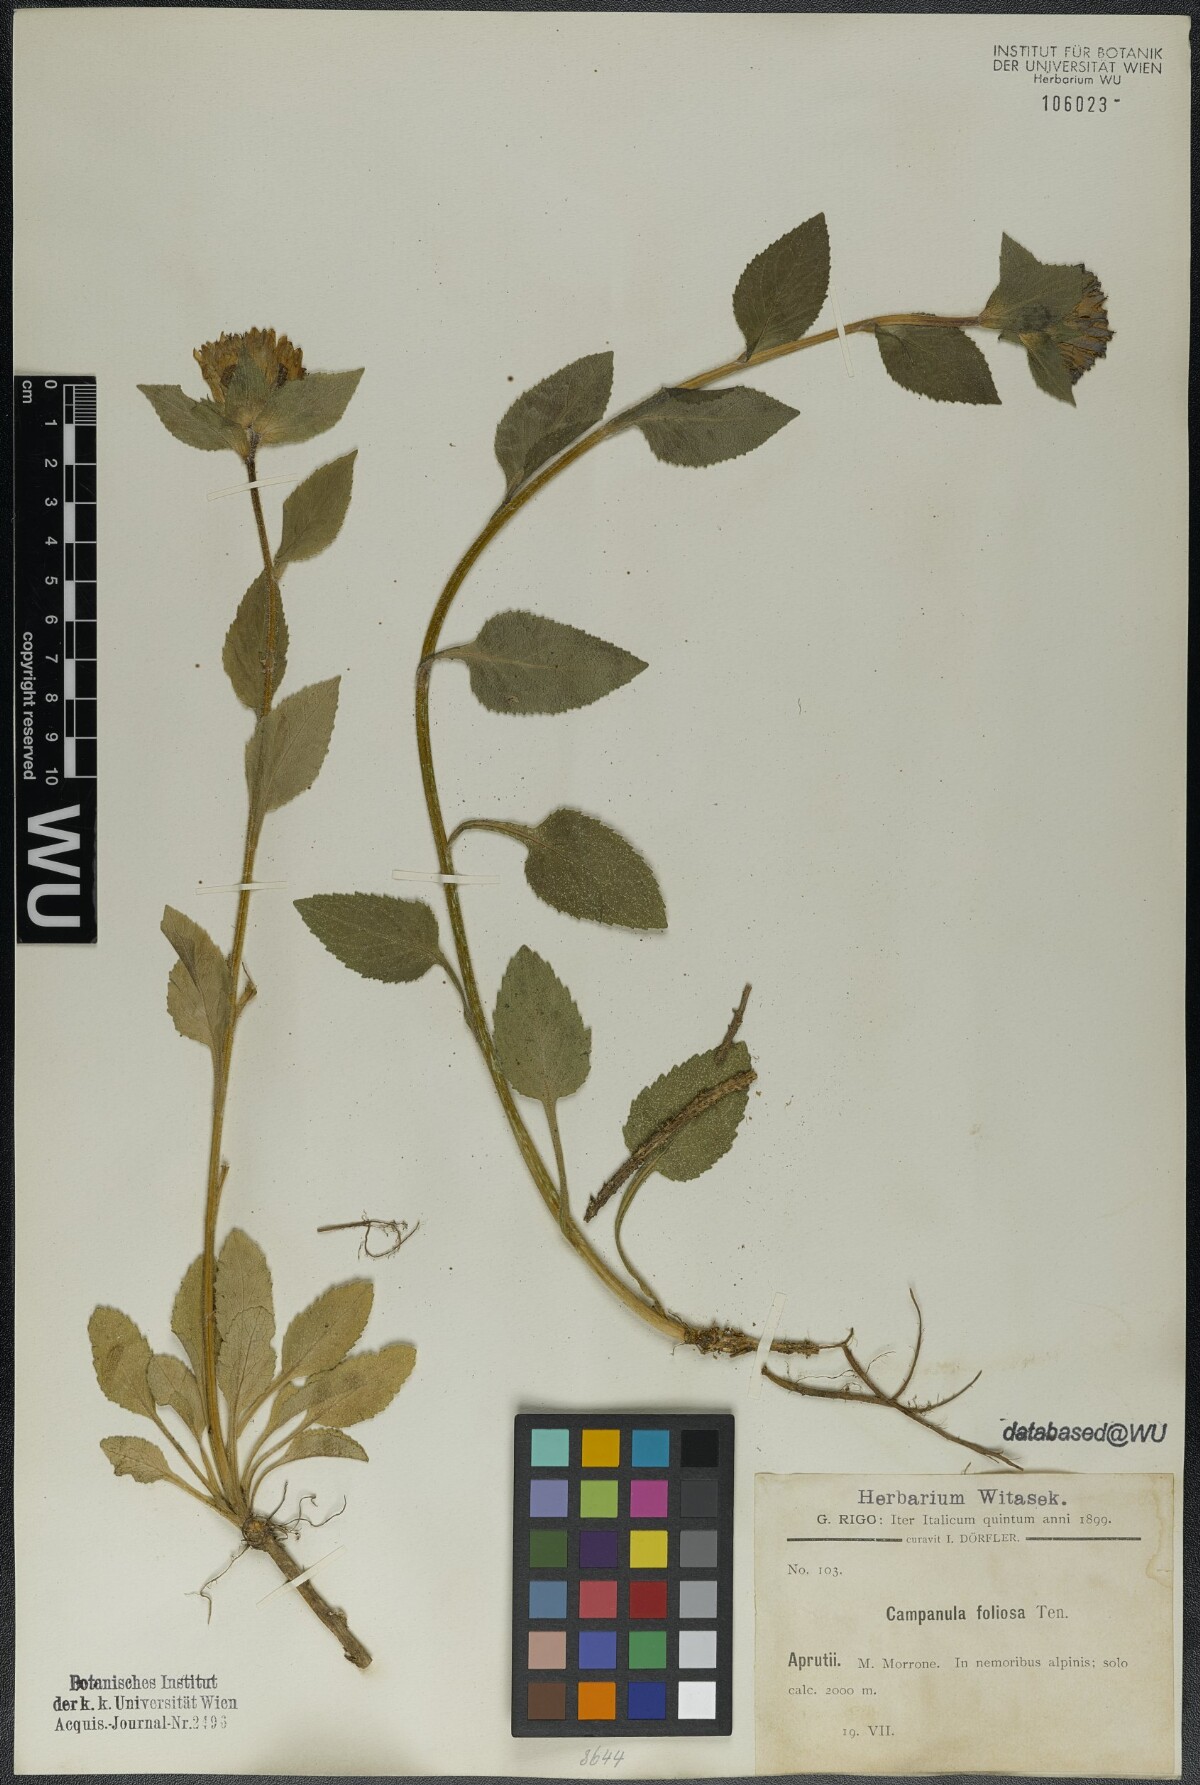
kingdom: Plantae
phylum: Tracheophyta
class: Magnoliopsida
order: Asterales
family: Campanulaceae
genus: Campanula
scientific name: Campanula foliosa
